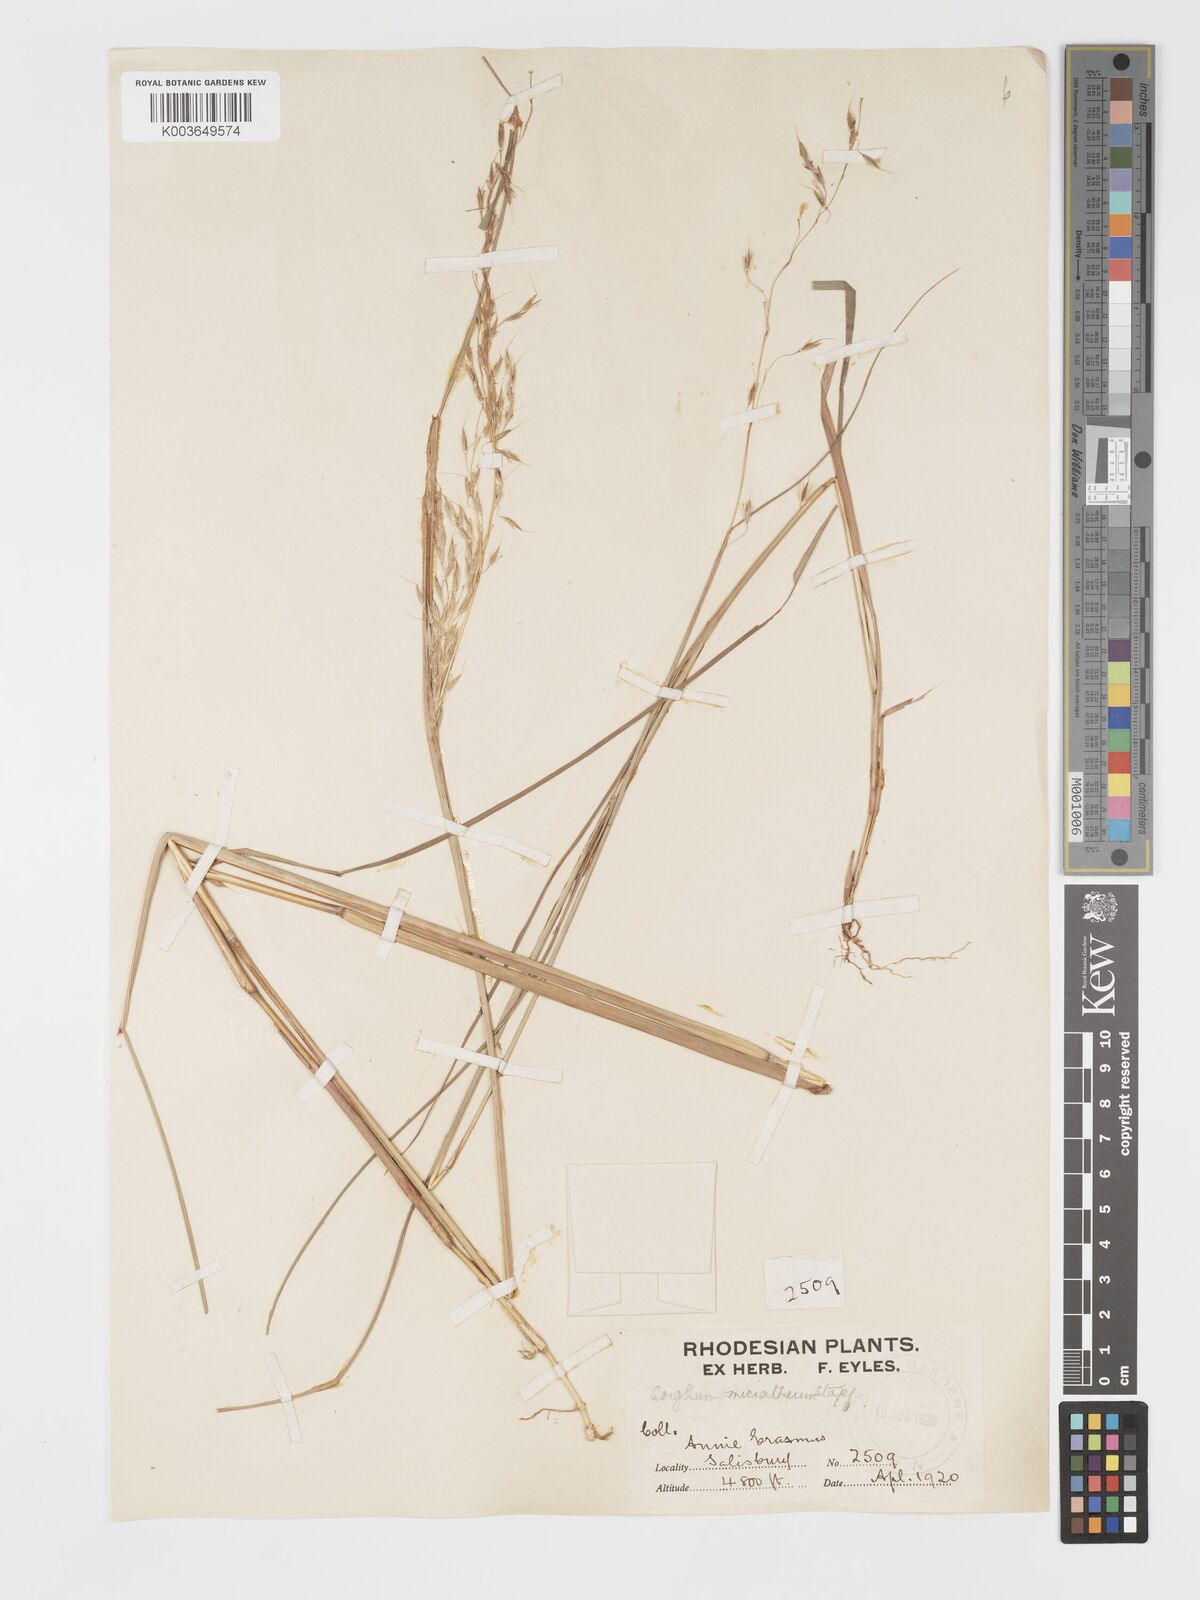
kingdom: Plantae
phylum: Tracheophyta
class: Liliopsida
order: Poales
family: Poaceae
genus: Sorghastrum
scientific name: Sorghastrum nudipes
